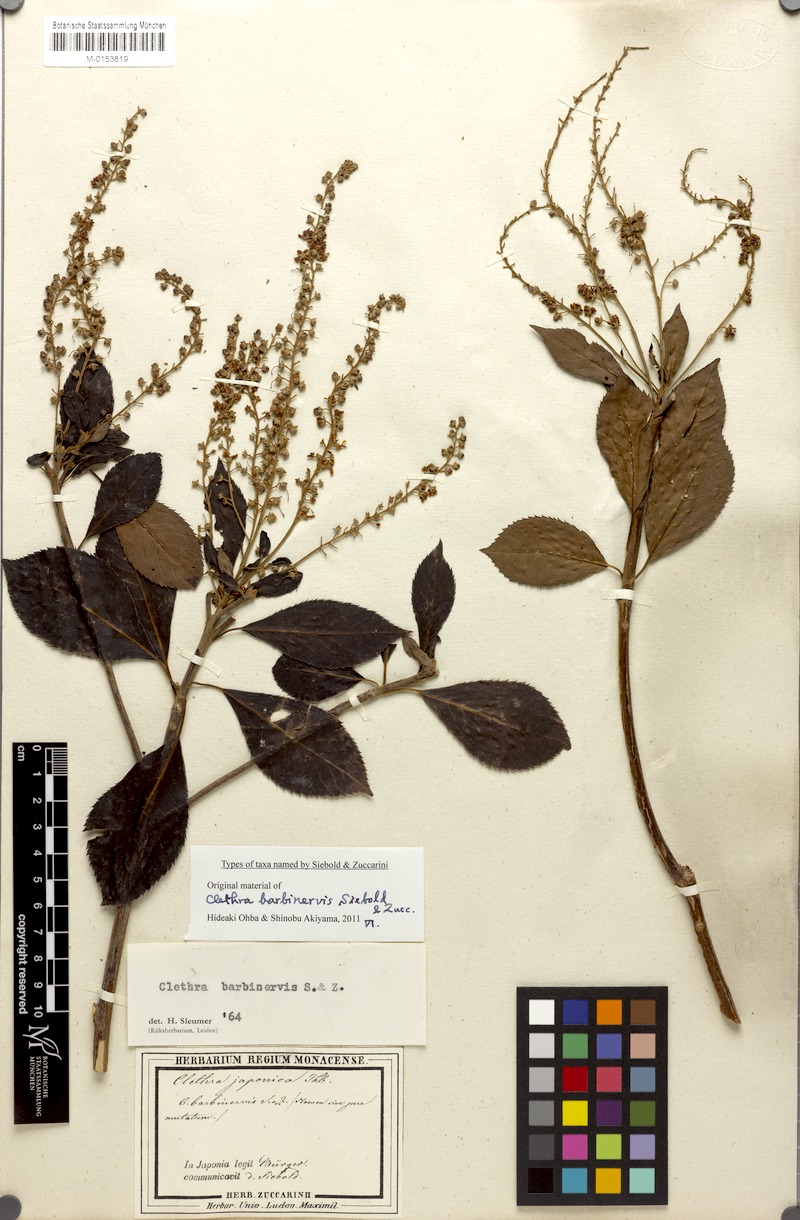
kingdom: Plantae
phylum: Tracheophyta
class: Magnoliopsida
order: Ericales
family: Clethraceae
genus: Clethra
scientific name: Clethra barbinervis
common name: Japanese clethra
